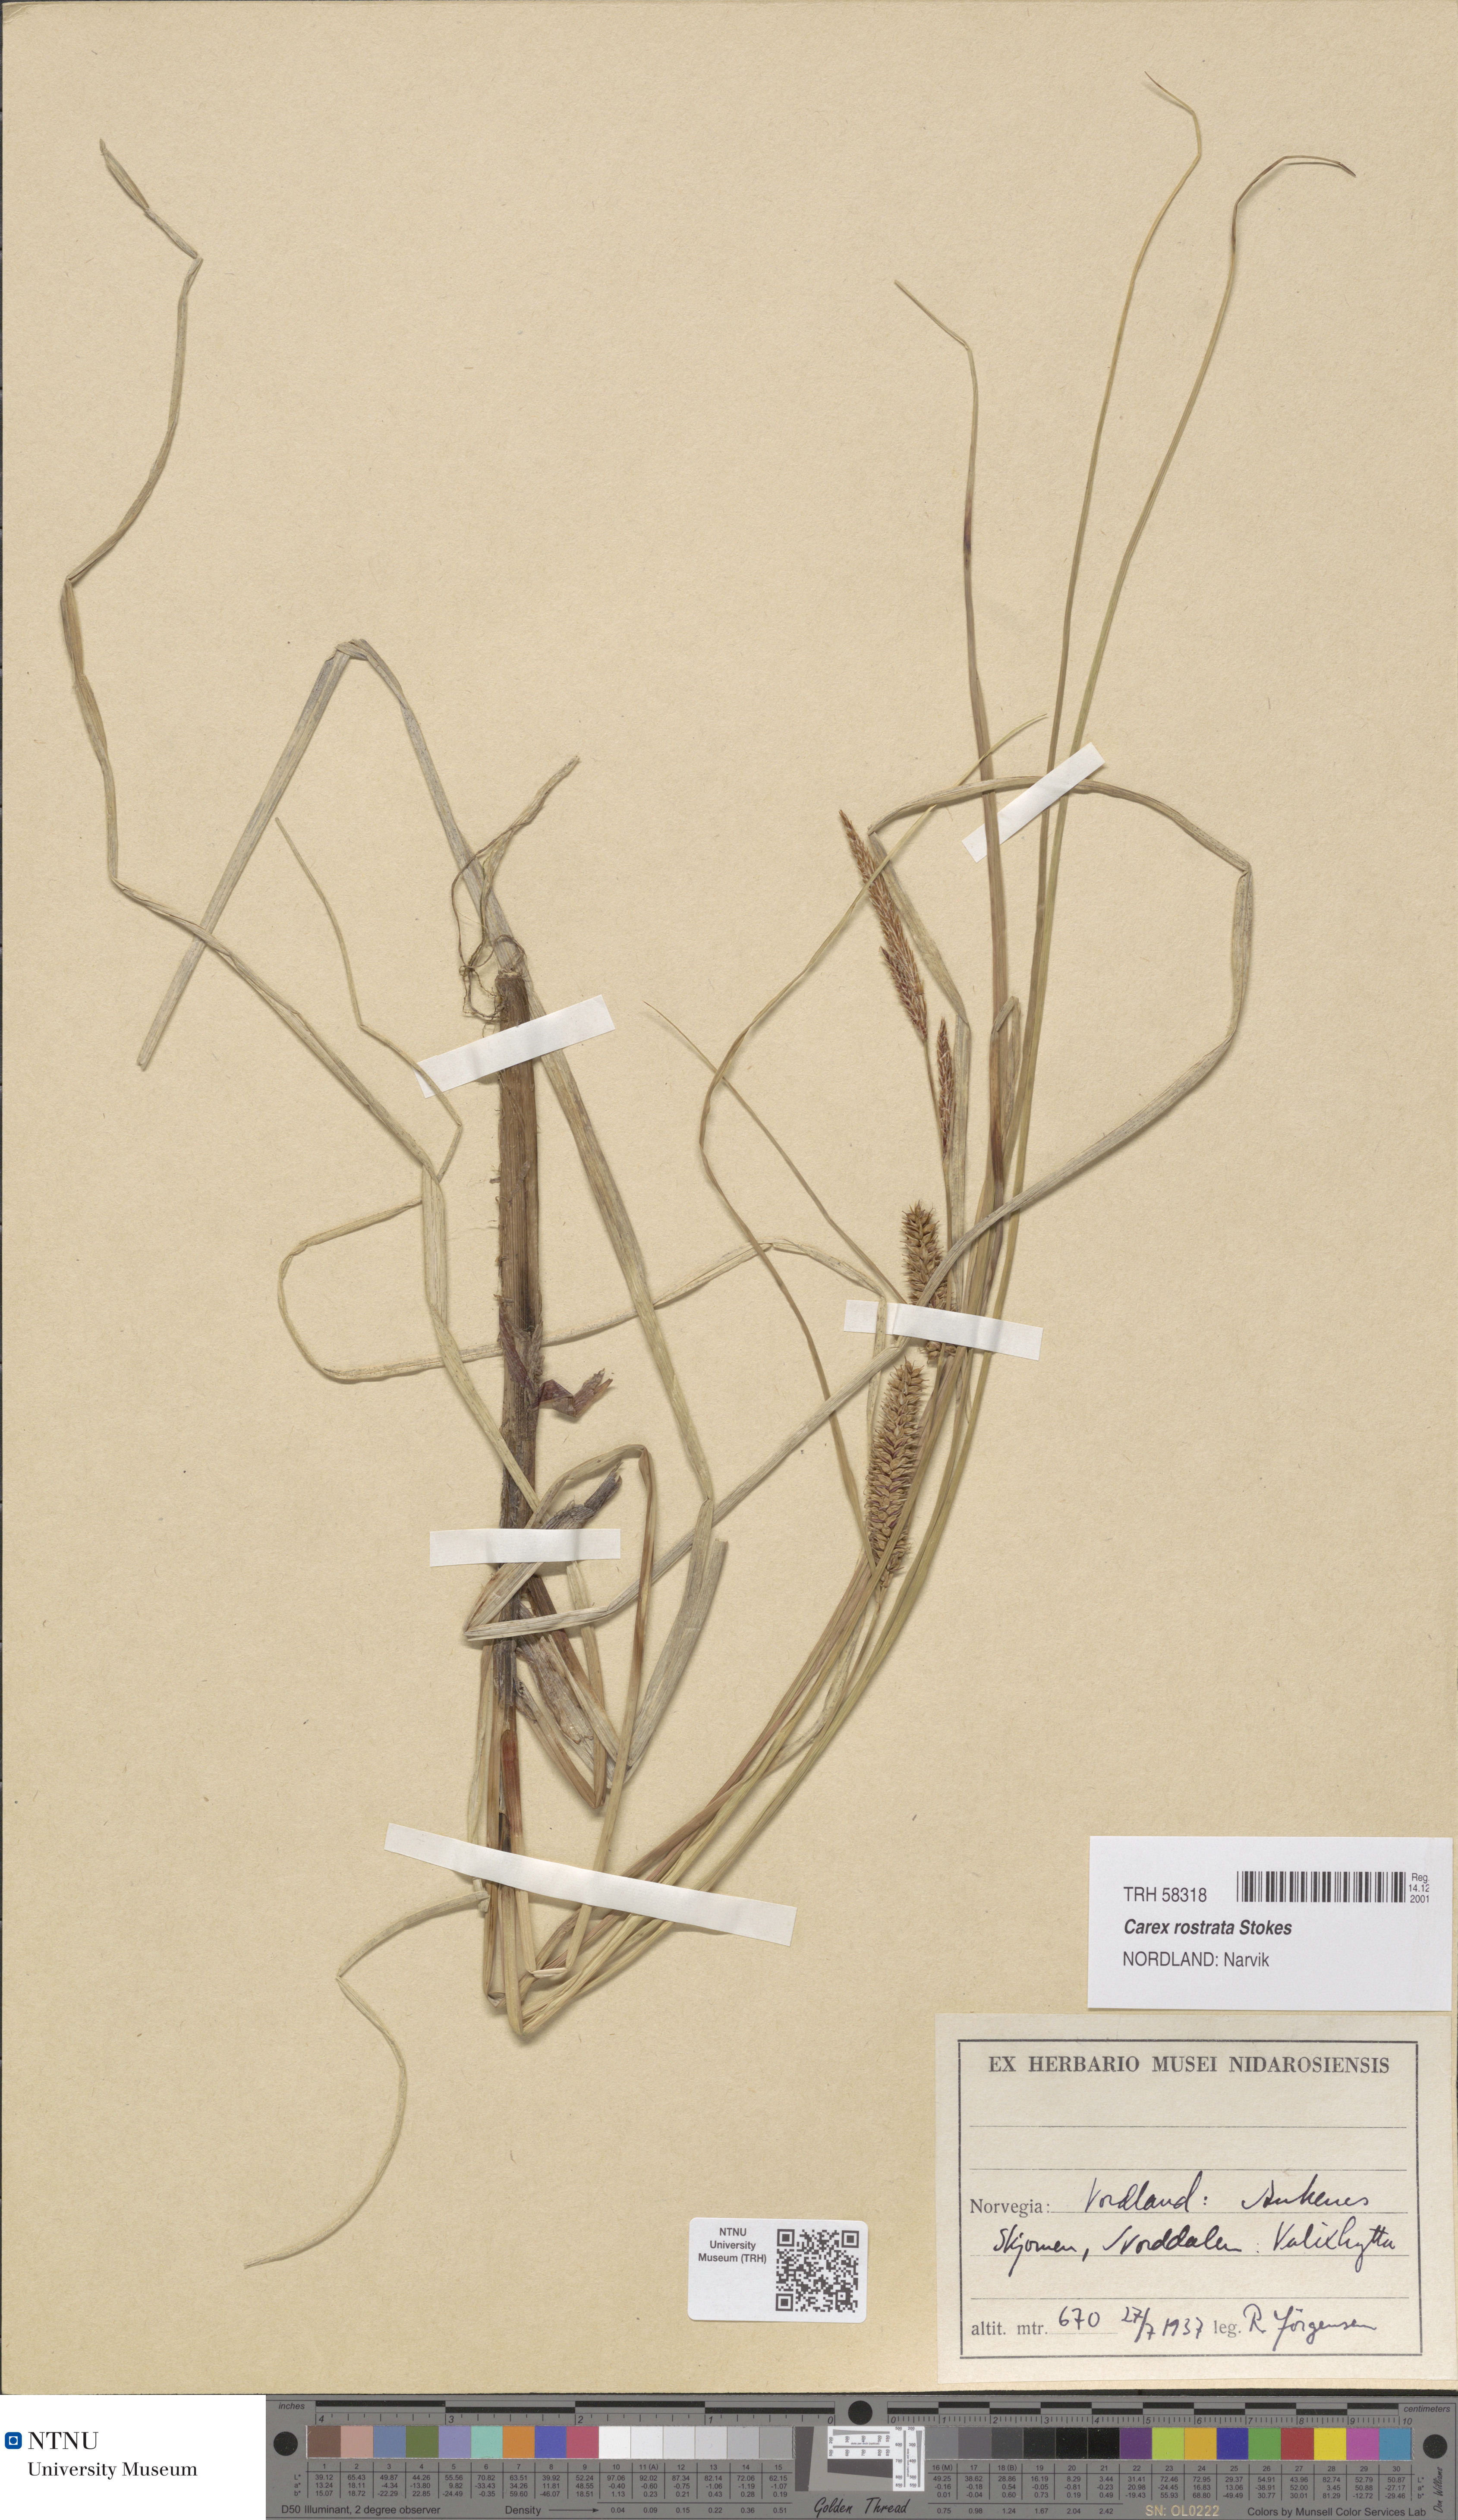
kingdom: Plantae
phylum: Tracheophyta
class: Liliopsida
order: Poales
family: Cyperaceae
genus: Carex
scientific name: Carex rostrata
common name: Bottle sedge
